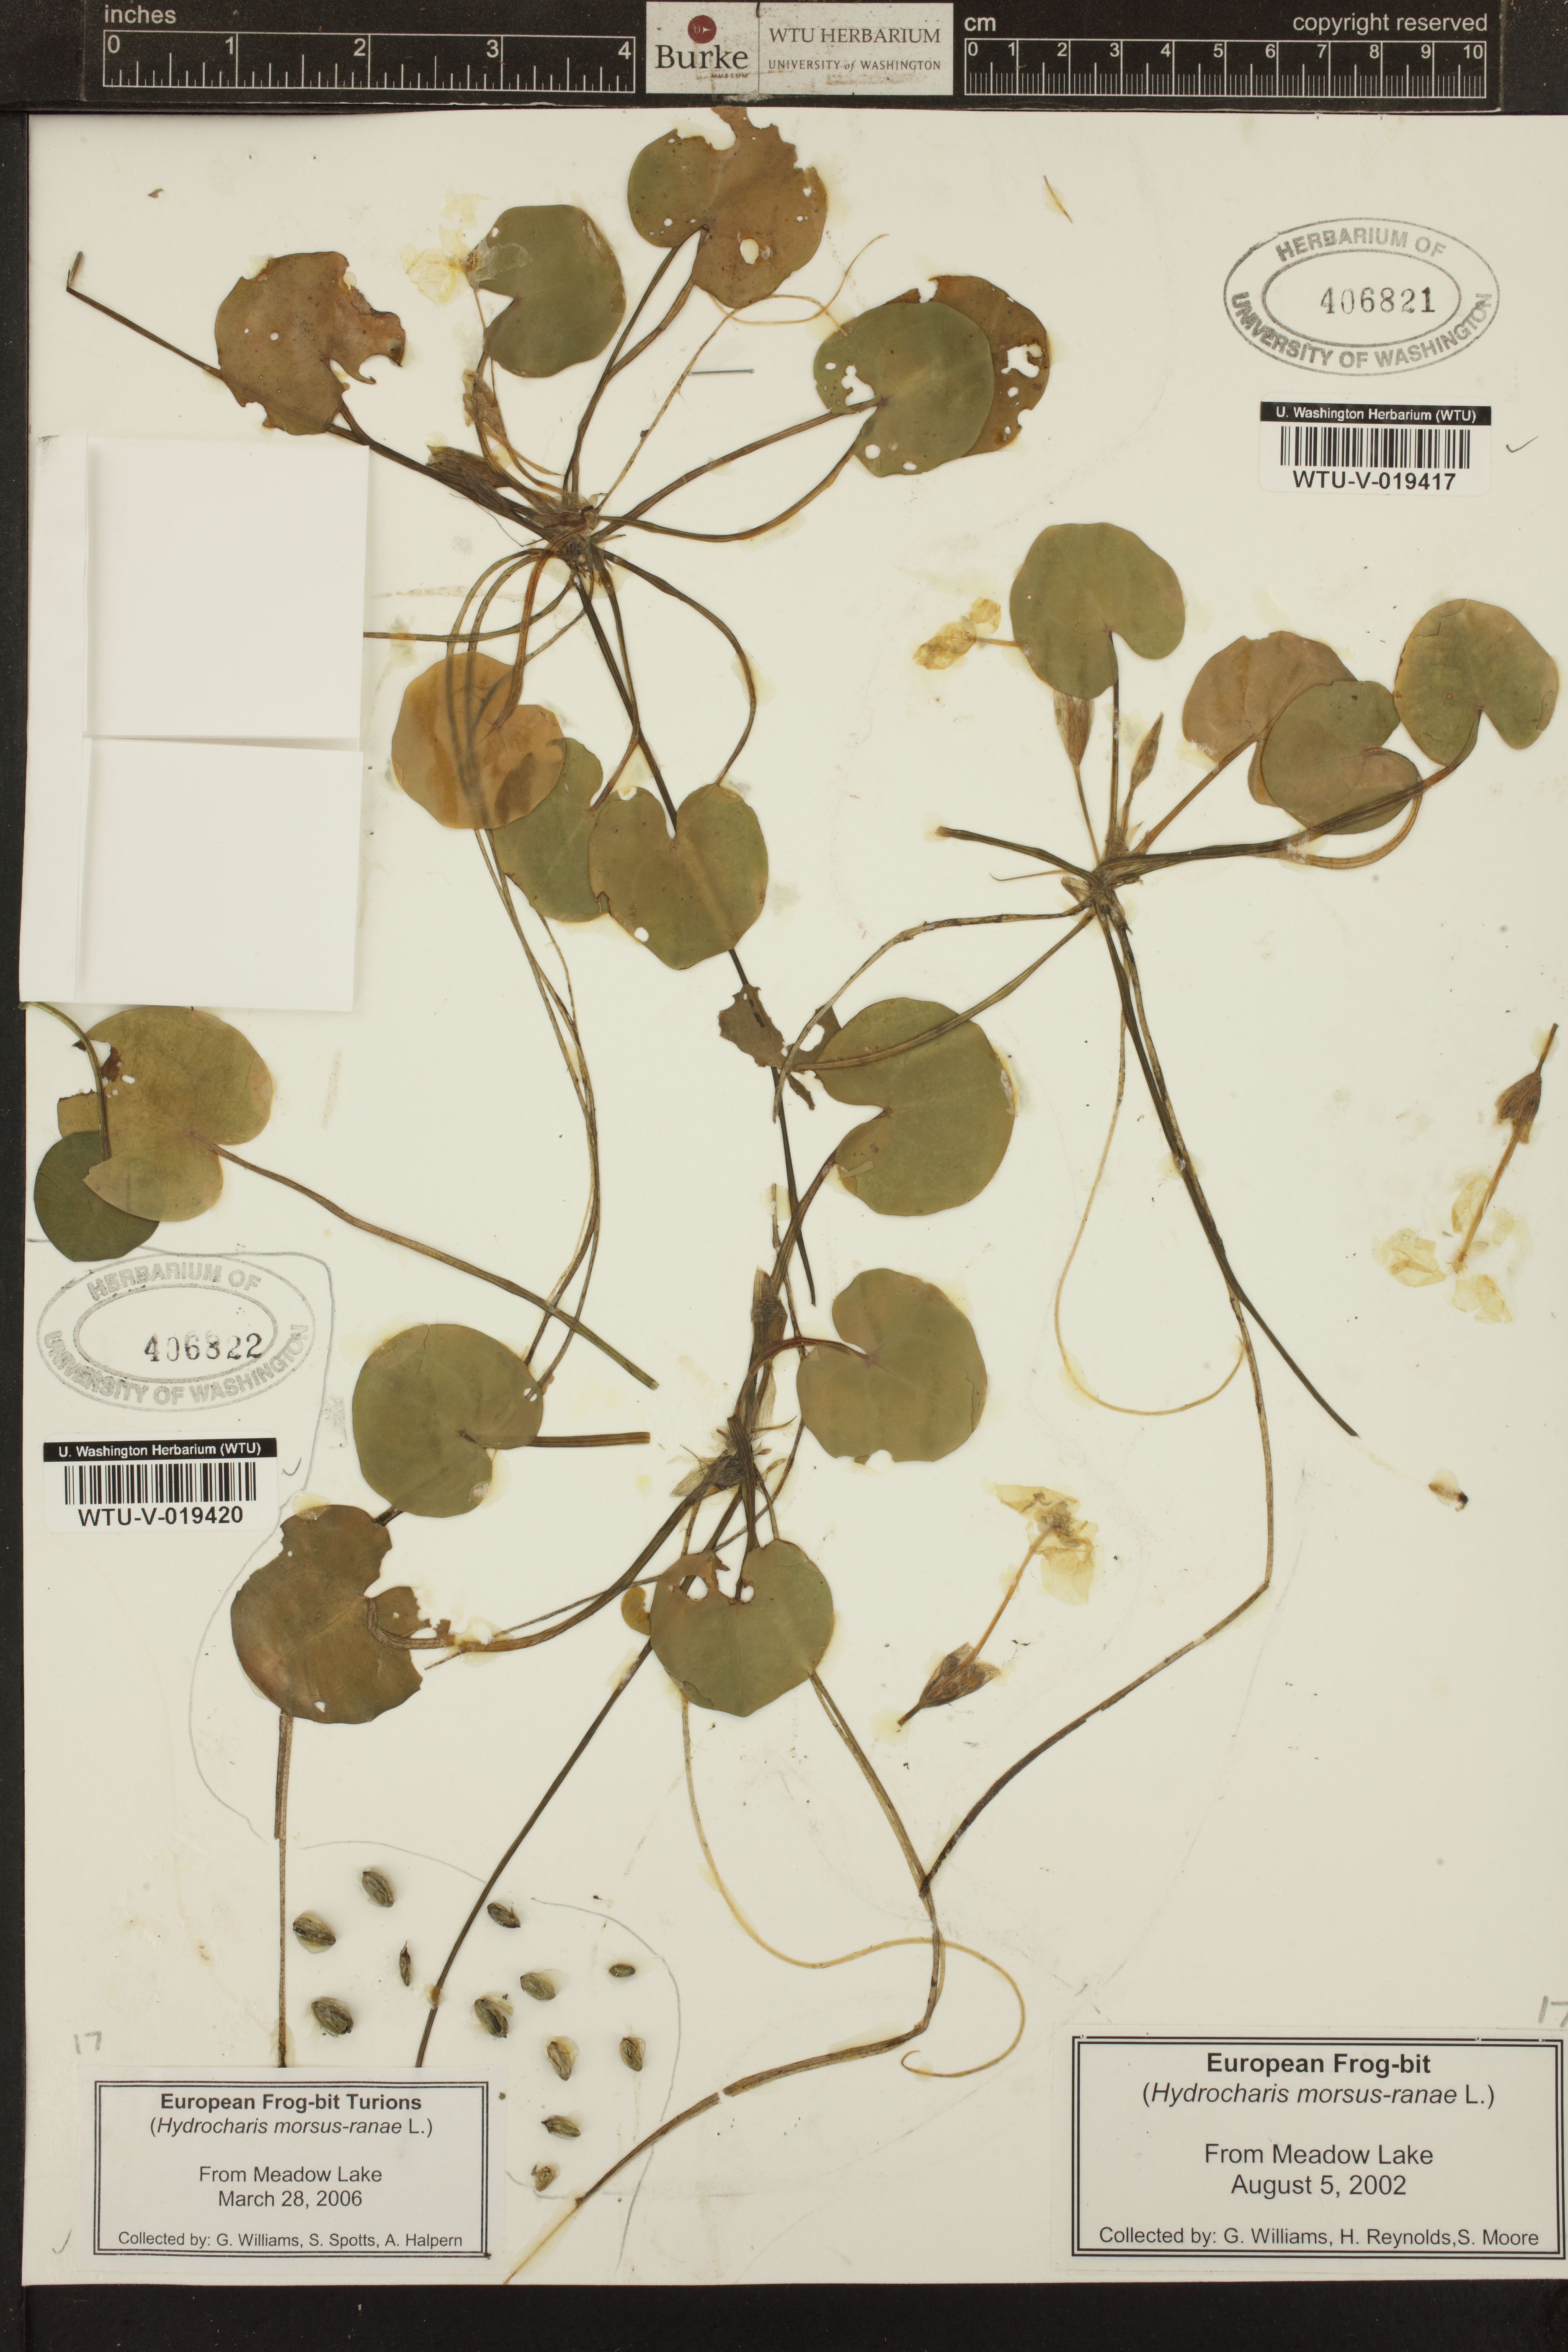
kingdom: Plantae
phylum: Tracheophyta
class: Liliopsida
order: Alismatales
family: Hydrocharitaceae
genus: Hydrocharis
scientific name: Hydrocharis morsus-ranae
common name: European frog-bit
